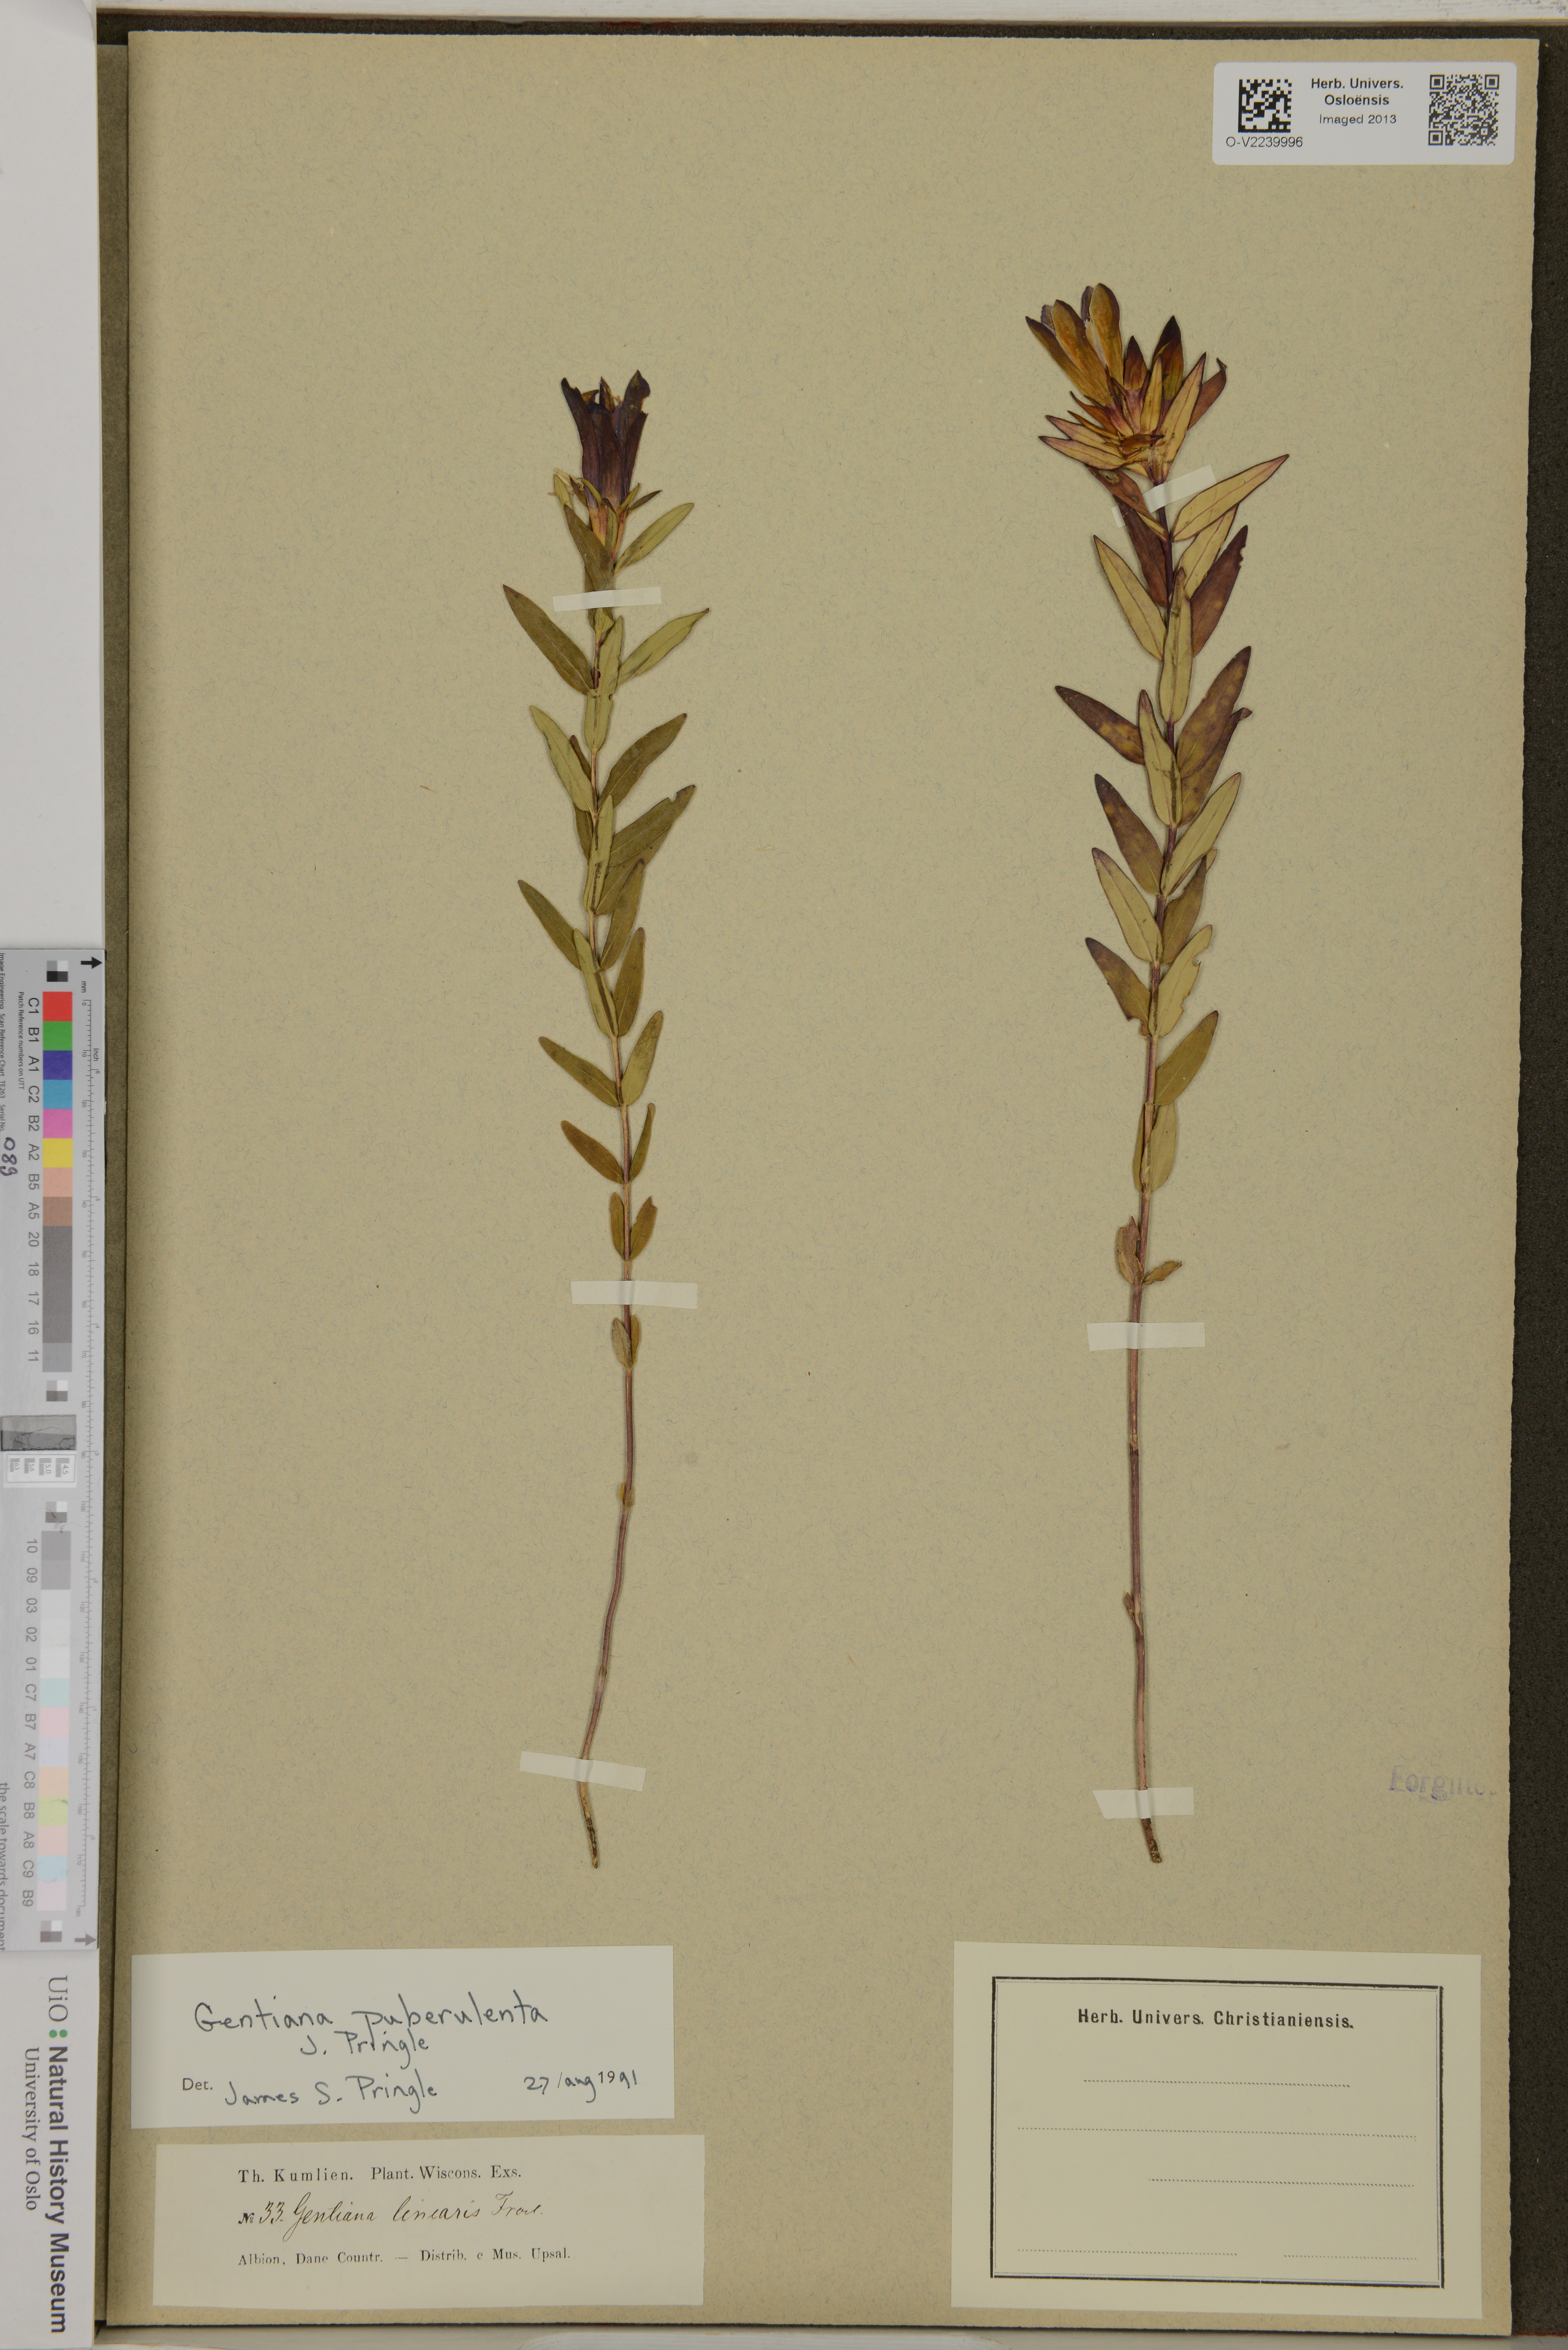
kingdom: Plantae
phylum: Tracheophyta
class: Magnoliopsida
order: Gentianales
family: Gentianaceae
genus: Gentiana
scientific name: Gentiana puberulenta
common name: Downy gentian
